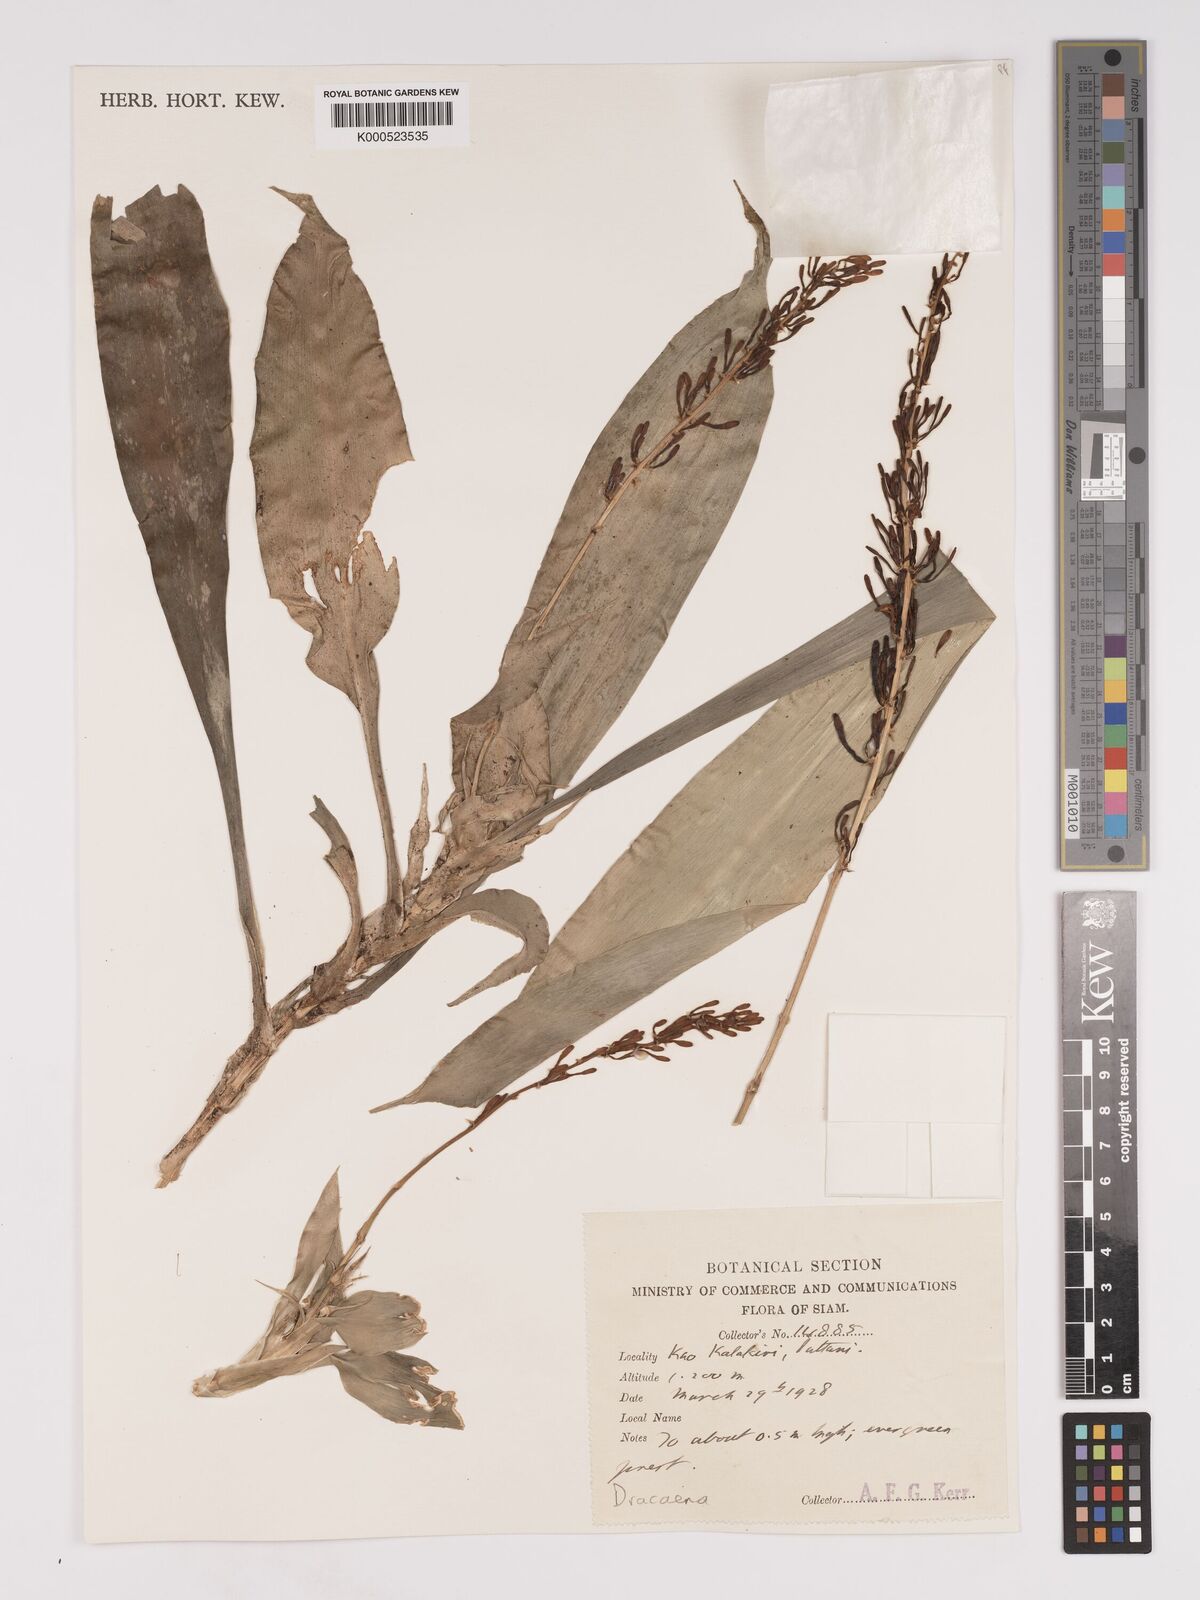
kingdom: Plantae
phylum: Tracheophyta
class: Liliopsida
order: Asparagales
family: Asparagaceae
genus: Dracaena
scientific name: Dracaena
